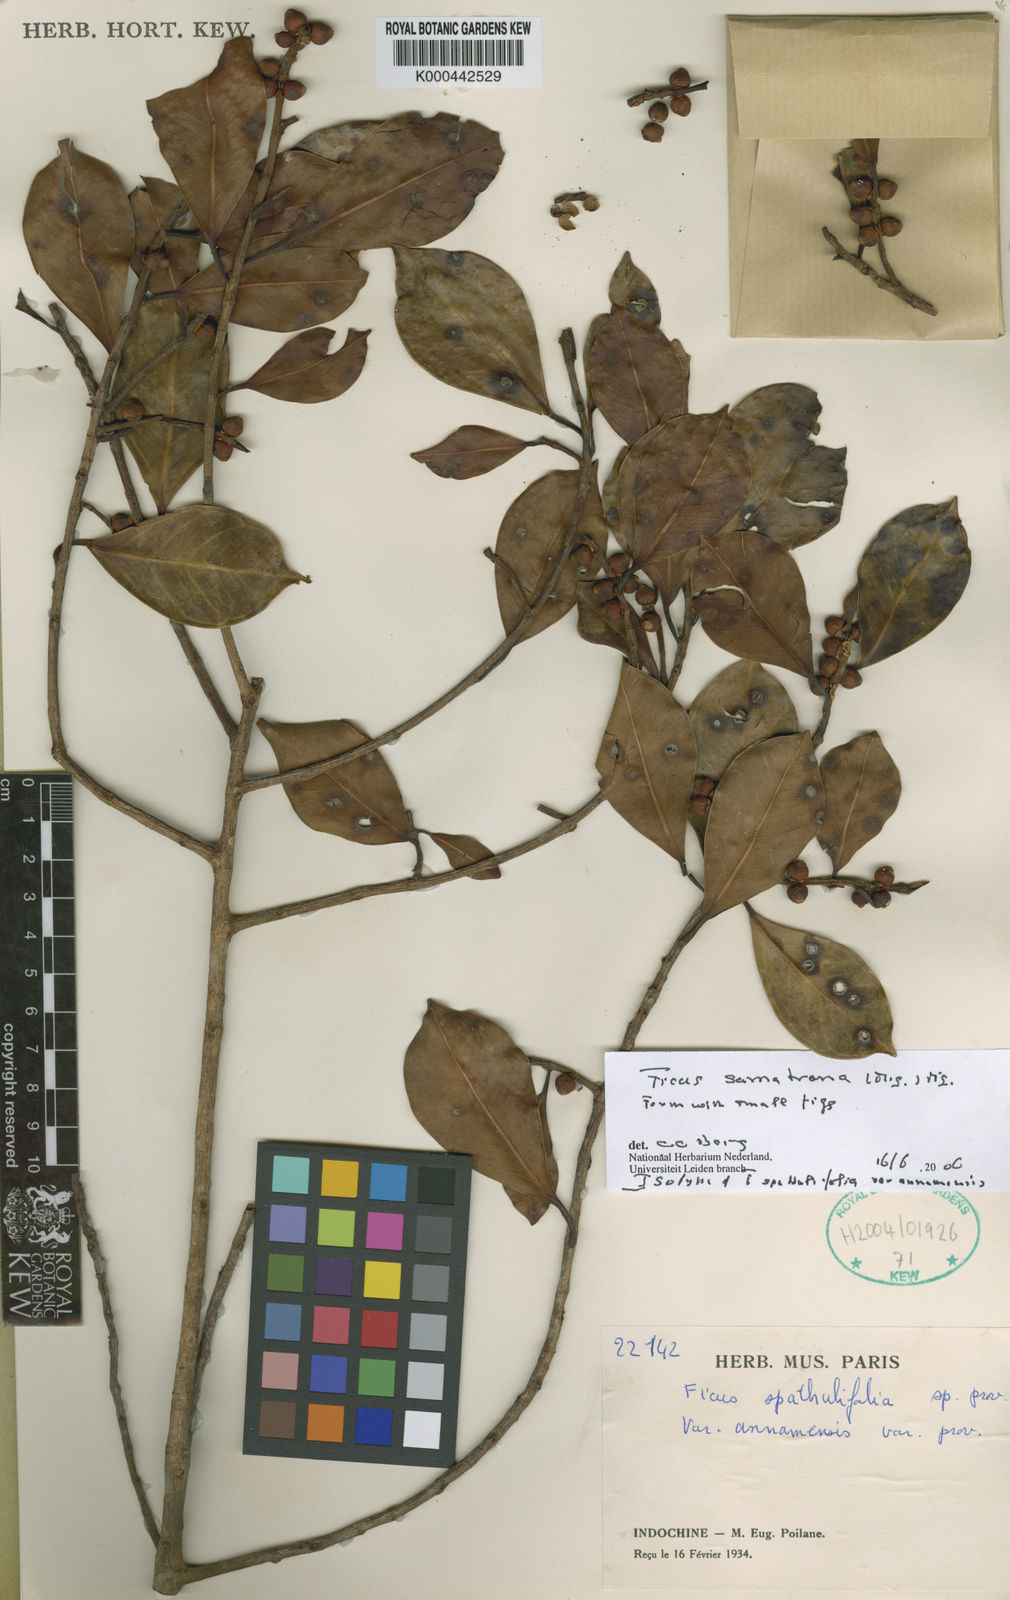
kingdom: Plantae
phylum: Tracheophyta
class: Magnoliopsida
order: Rosales
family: Moraceae
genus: Ficus
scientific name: Ficus sumatrana
